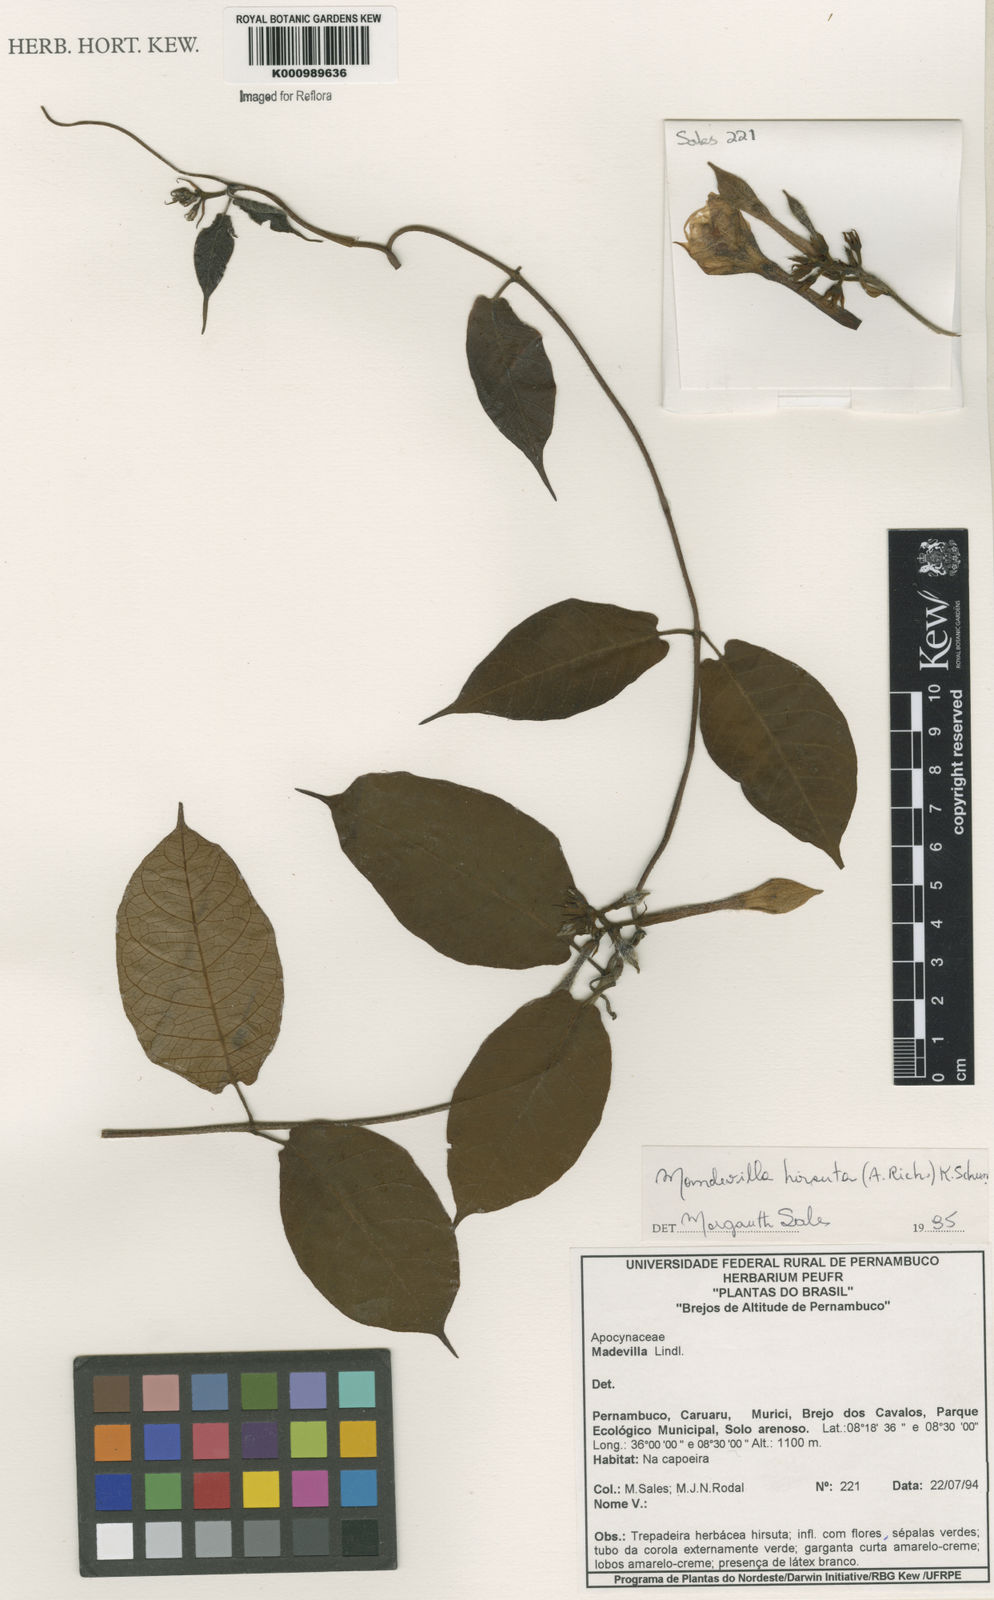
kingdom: Plantae
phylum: Tracheophyta
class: Magnoliopsida
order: Gentianales
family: Apocynaceae
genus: Mandevilla
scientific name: Mandevilla hirsuta
